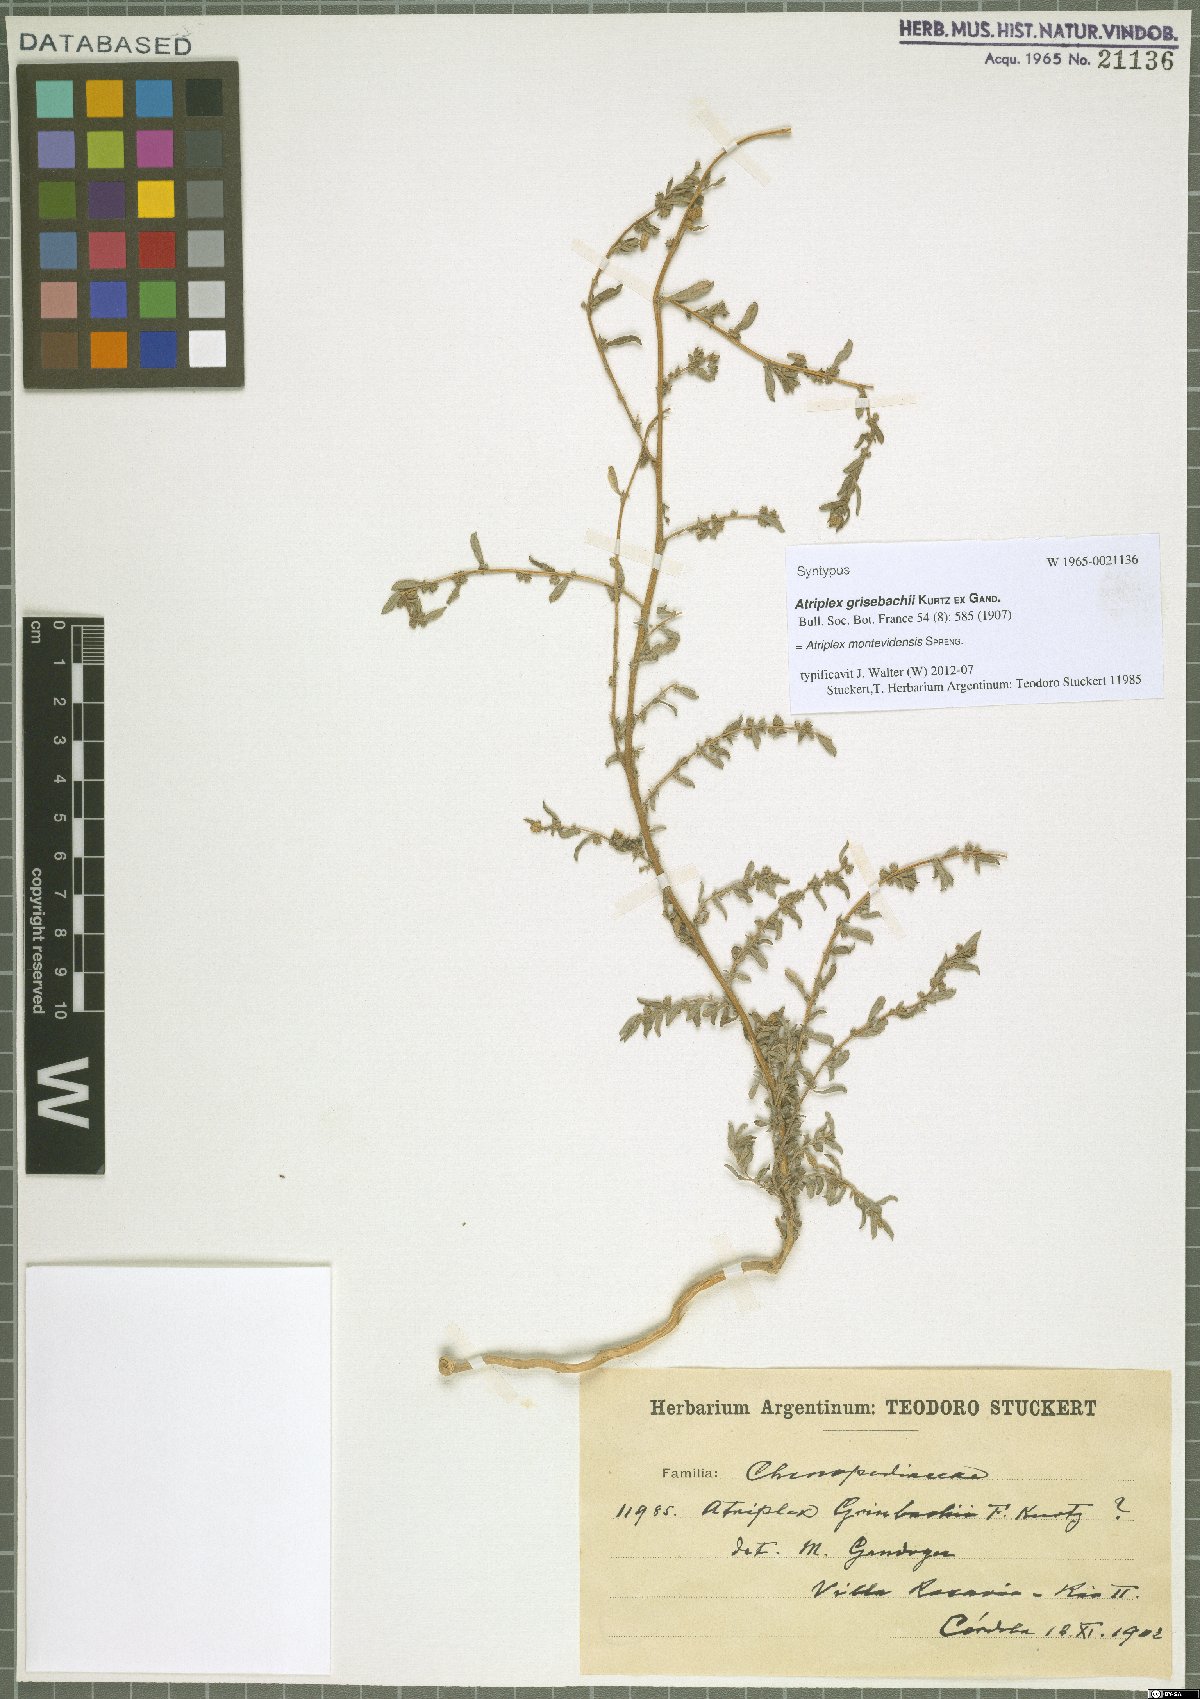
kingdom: Plantae
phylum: Tracheophyta
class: Magnoliopsida
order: Caryophyllales
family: Amaranthaceae
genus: Atriplex
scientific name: Atriplex montevidensis
